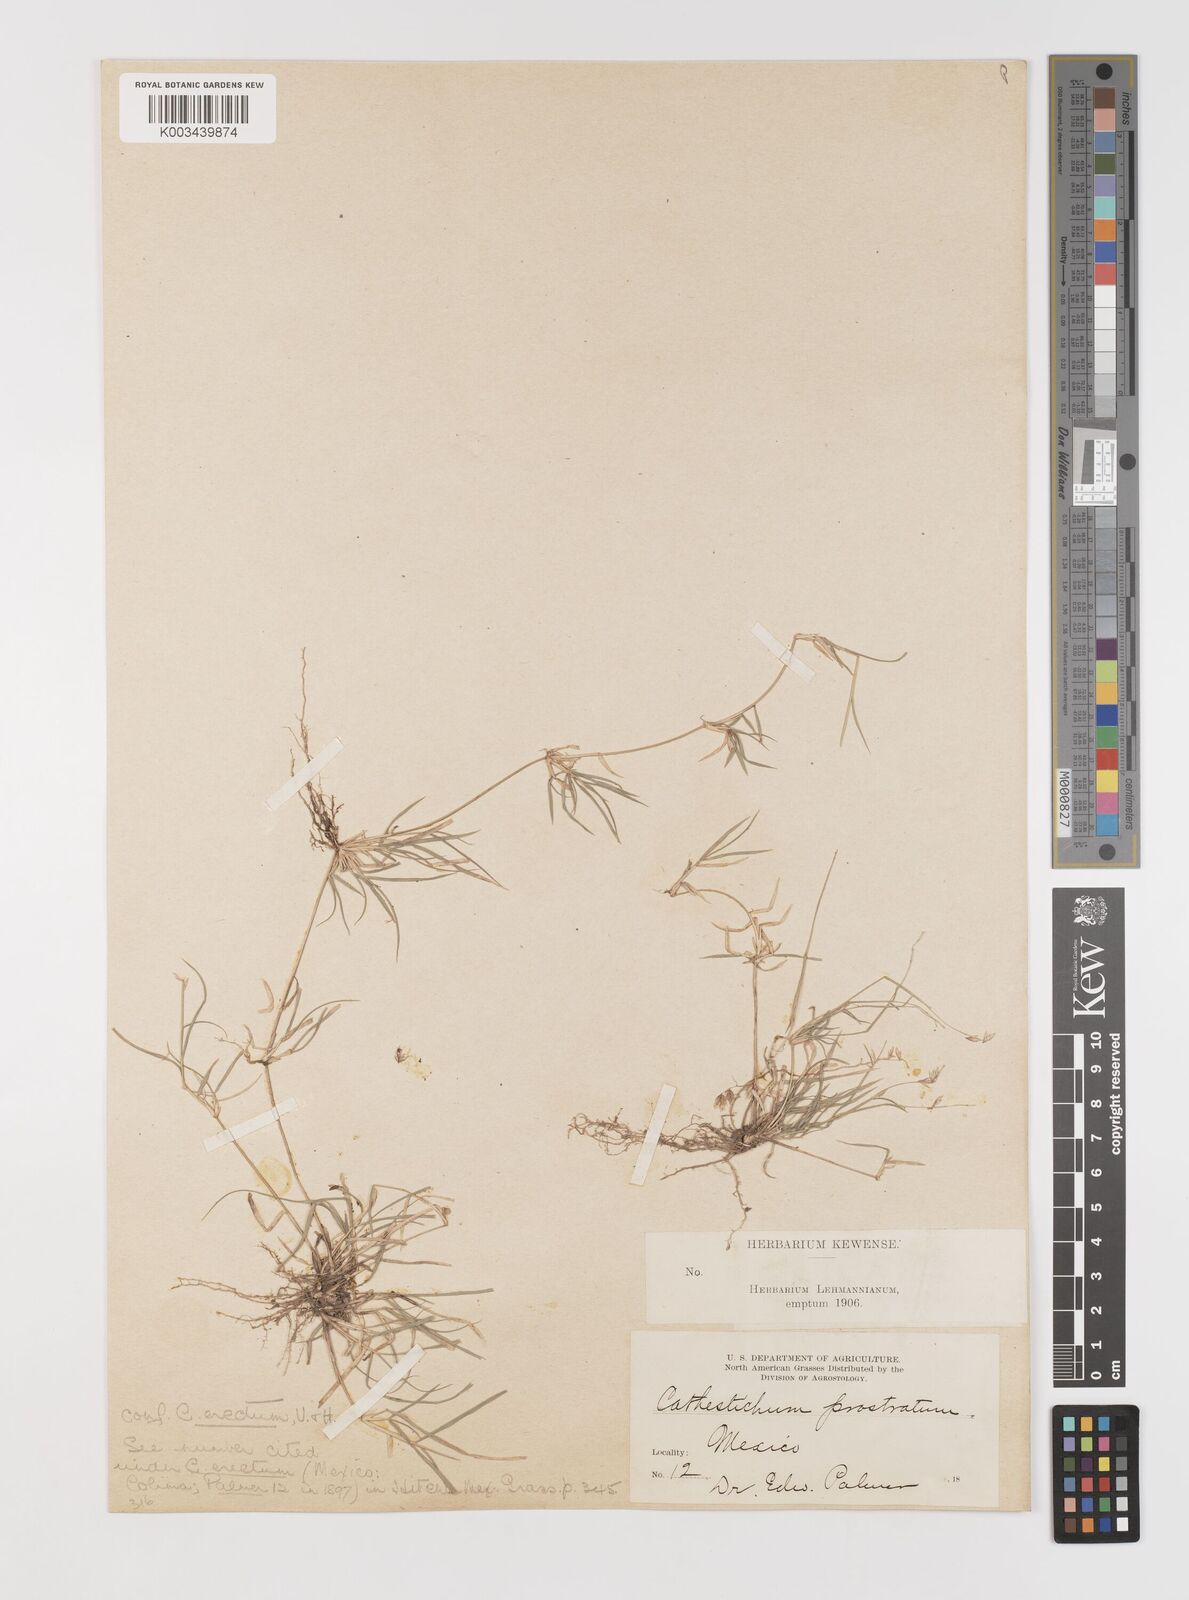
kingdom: Plantae
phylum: Tracheophyta
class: Liliopsida
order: Poales
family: Poaceae
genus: Bouteloua
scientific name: Bouteloua diversispicula
